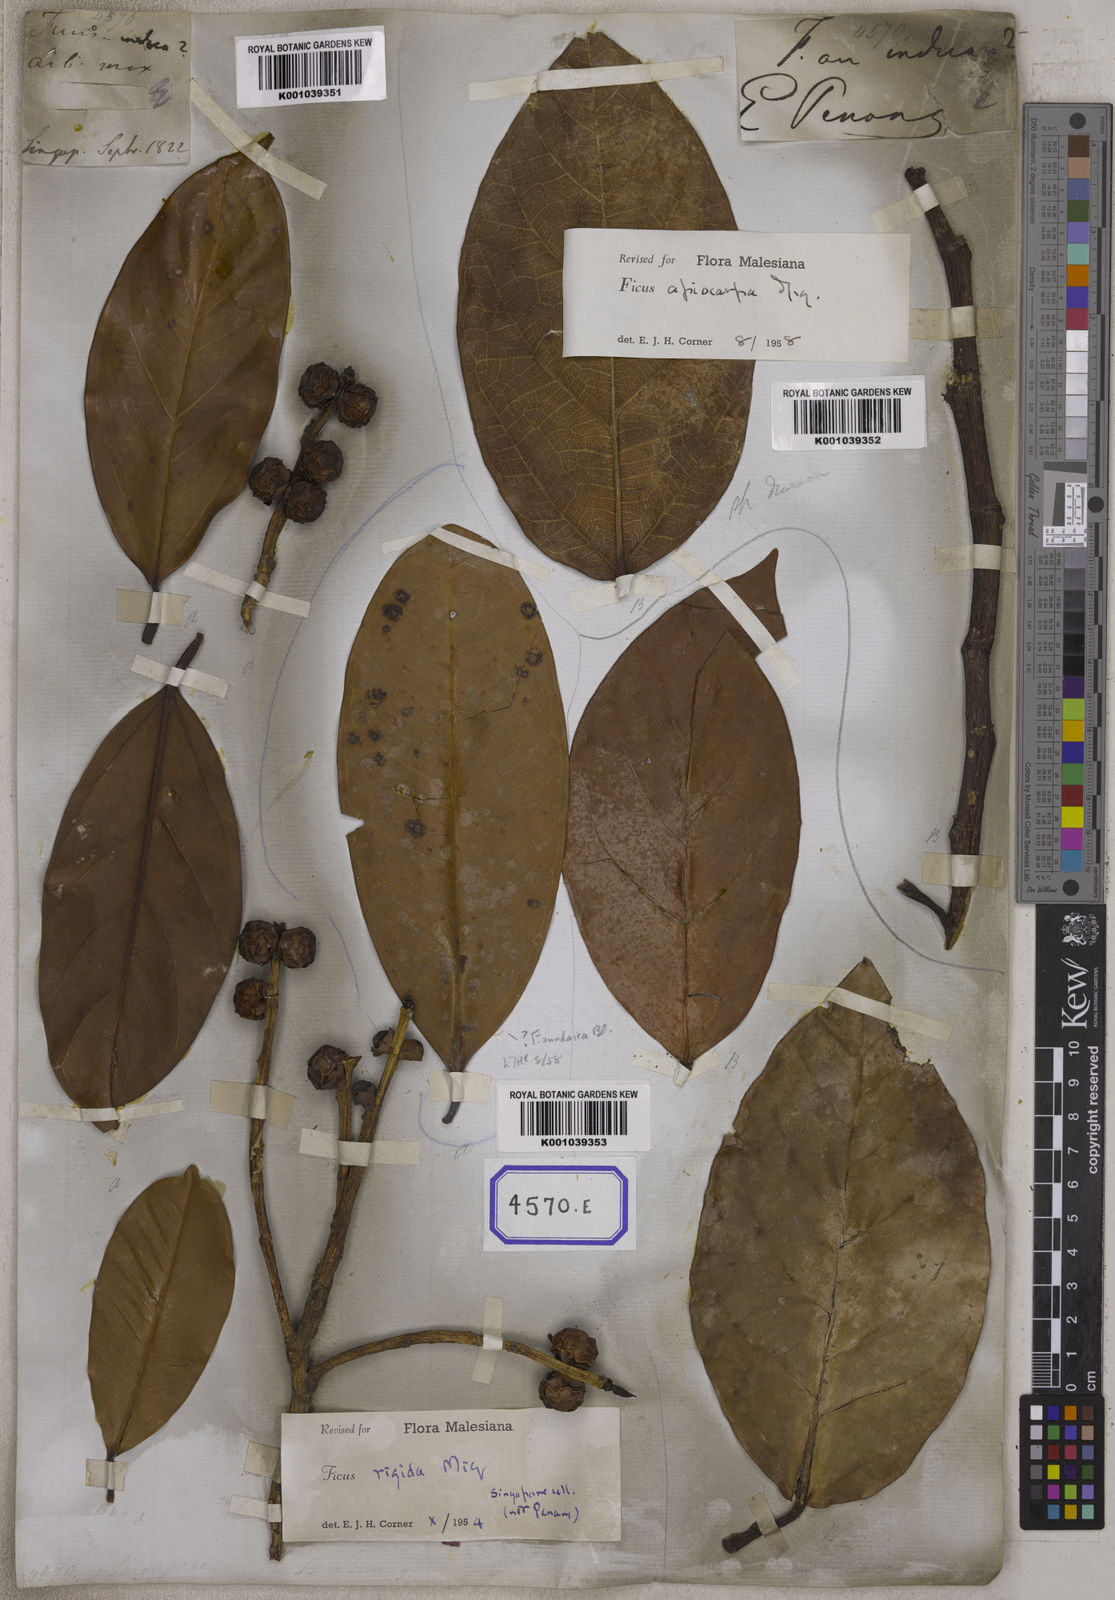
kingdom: Plantae
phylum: Tracheophyta
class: Magnoliopsida
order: Rosales
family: Moraceae
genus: Ficus
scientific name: Ficus
